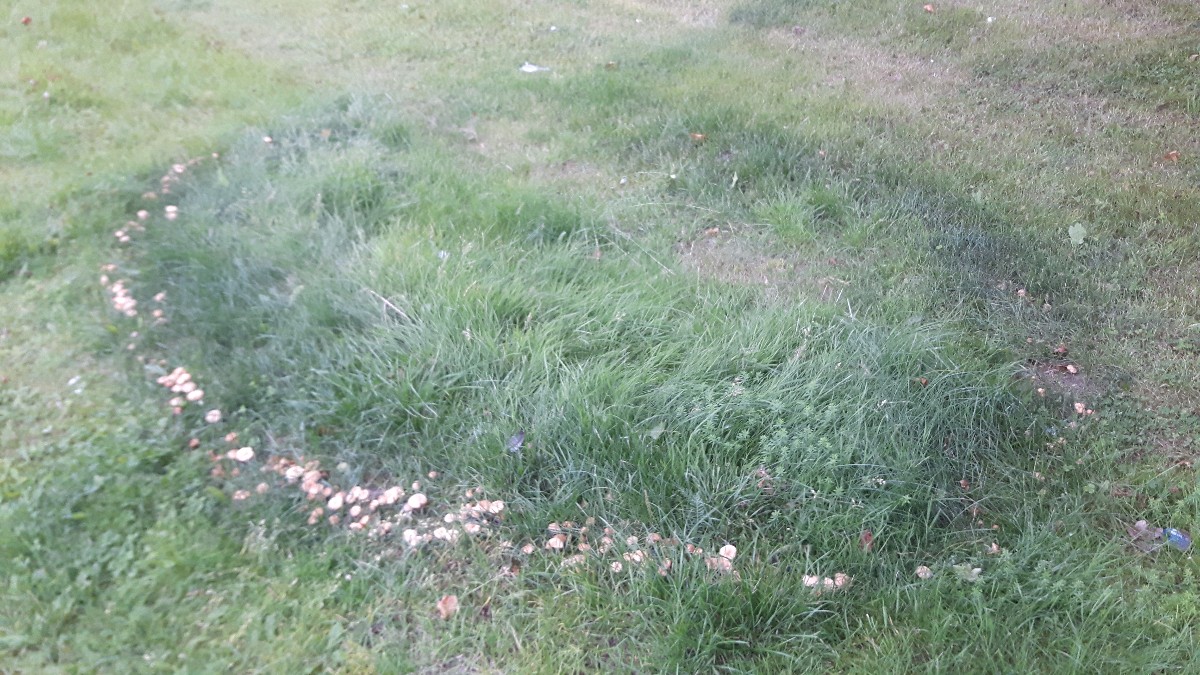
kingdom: Fungi
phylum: Basidiomycota
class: Agaricomycetes
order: Agaricales
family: Marasmiaceae
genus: Marasmius
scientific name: Marasmius oreades
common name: elledans-bruskhat
